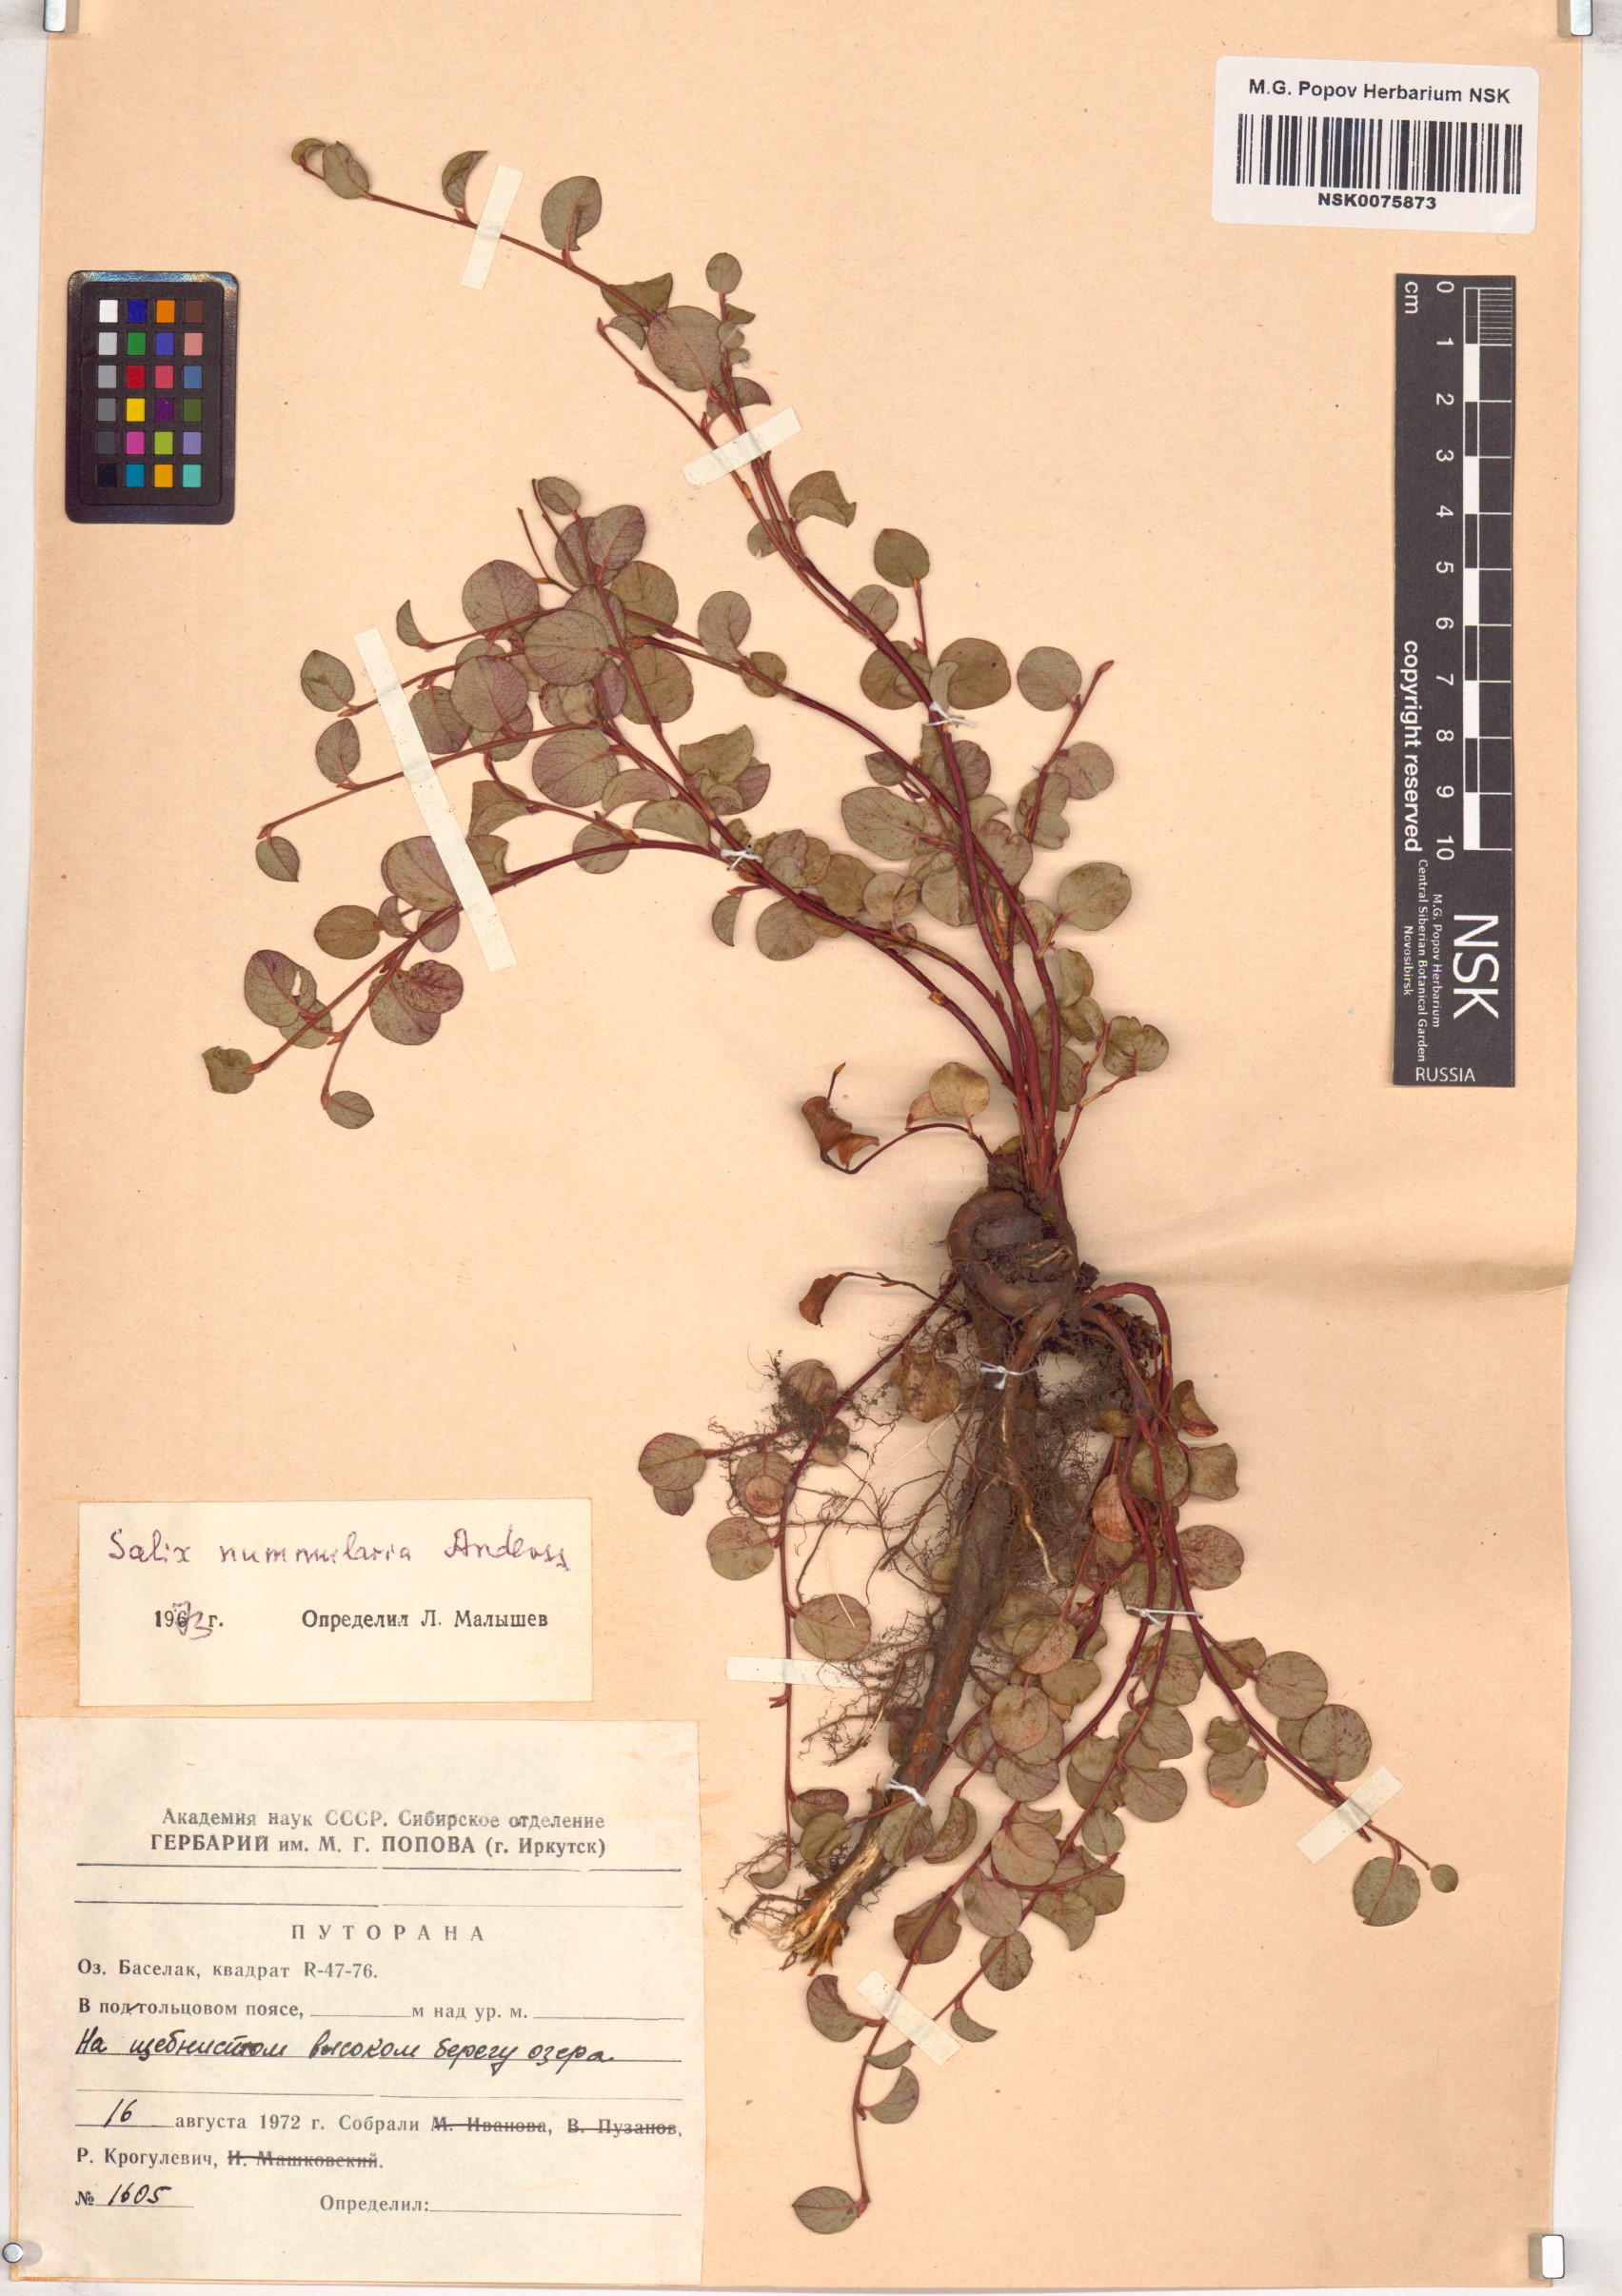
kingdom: Plantae
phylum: Tracheophyta
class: Magnoliopsida
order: Malpighiales
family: Salicaceae
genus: Salix
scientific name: Salix nummularia
